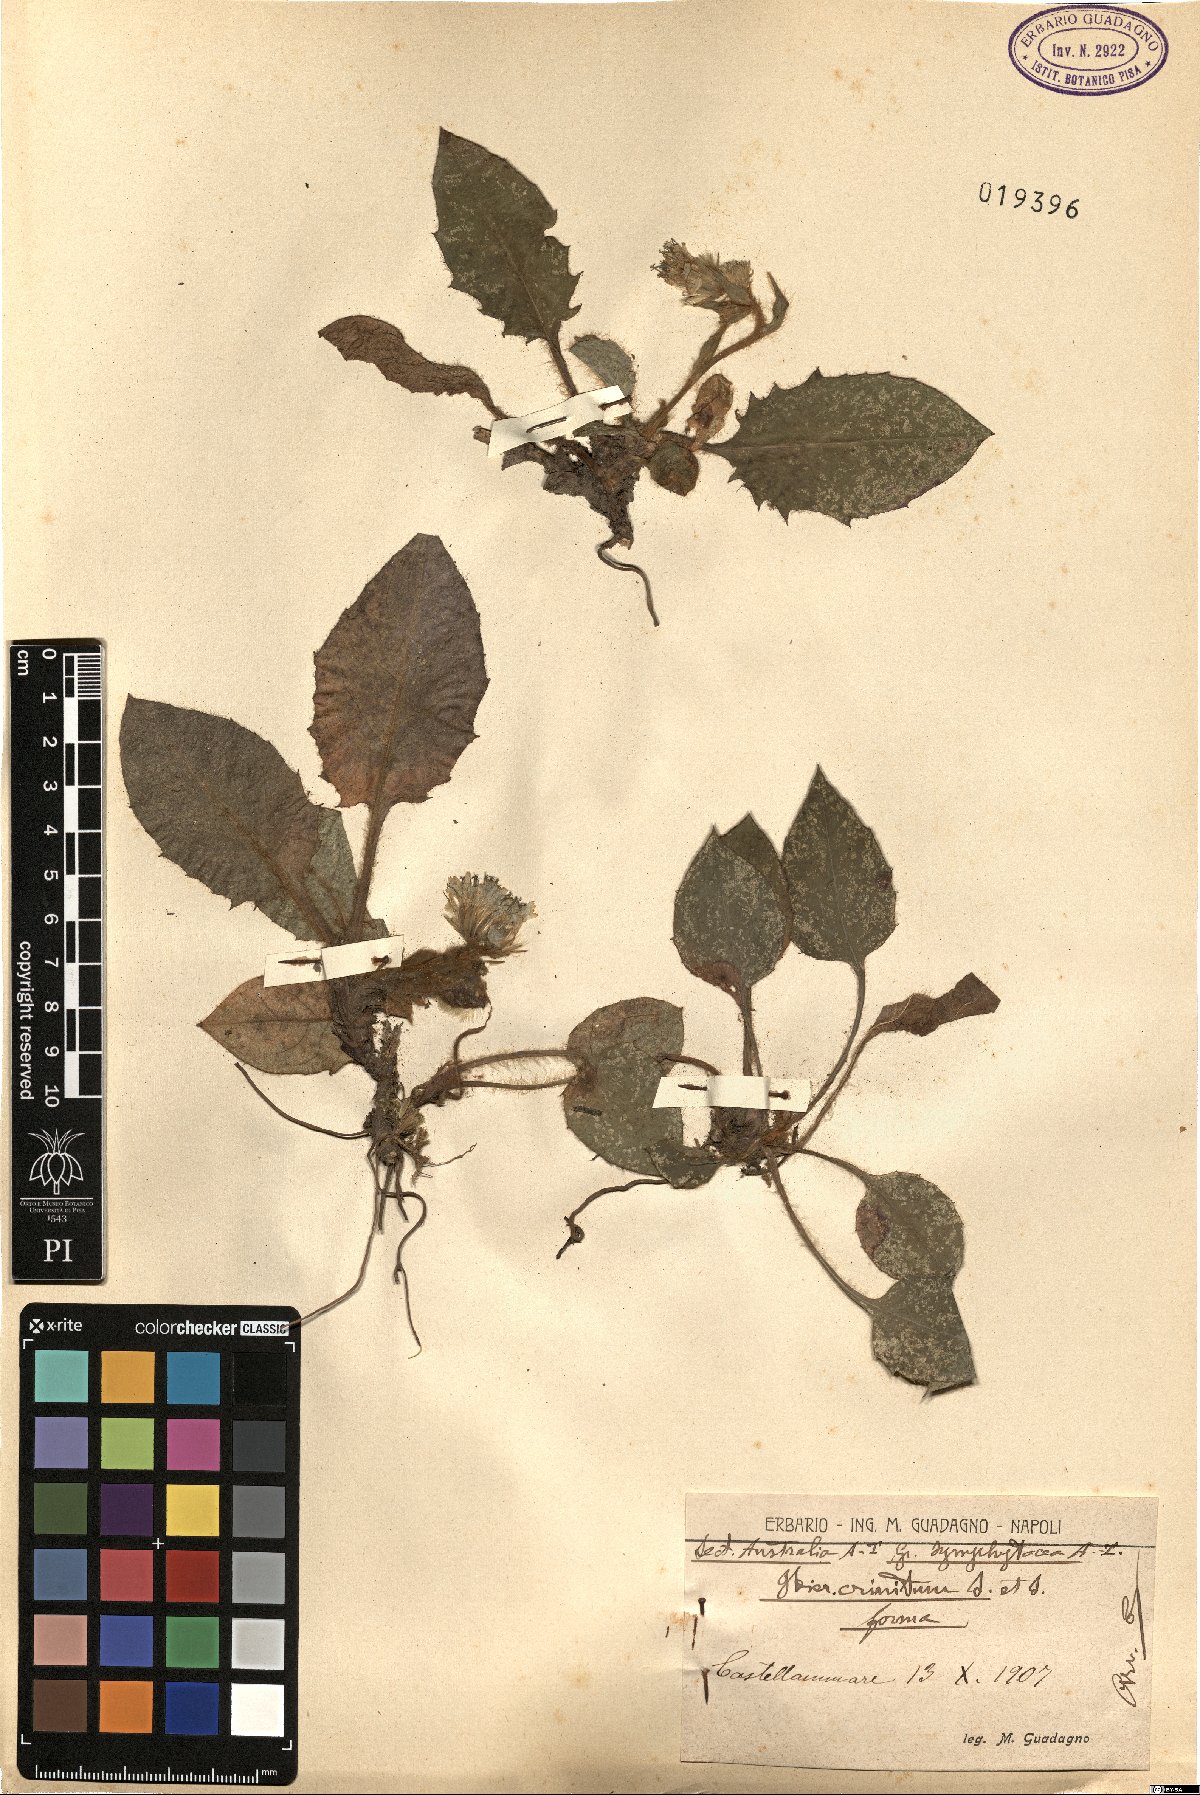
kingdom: Plantae
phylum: Tracheophyta
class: Magnoliopsida
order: Asterales
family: Asteraceae
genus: Hieracium
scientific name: Hieracium racemosum
